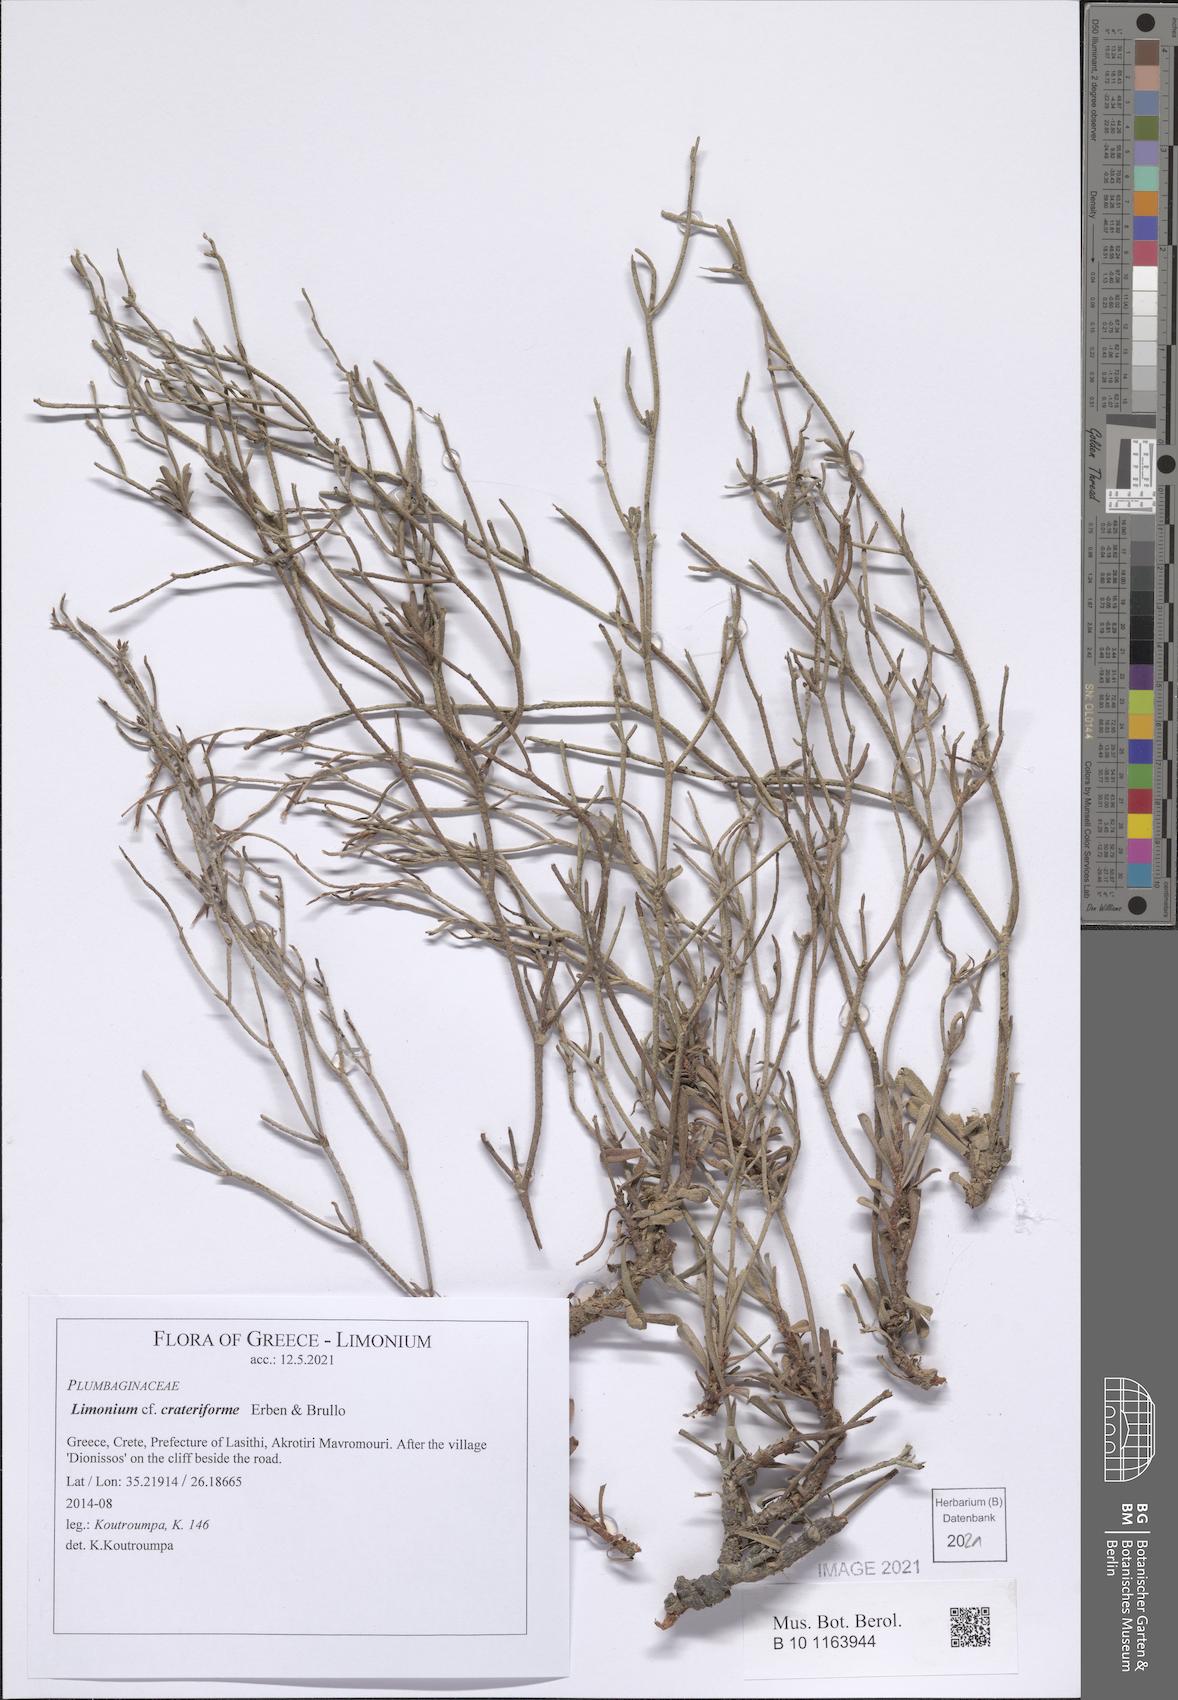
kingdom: Plantae
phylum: Tracheophyta
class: Magnoliopsida
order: Caryophyllales
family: Plumbaginaceae
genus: Limonium
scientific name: Limonium crateriforme
